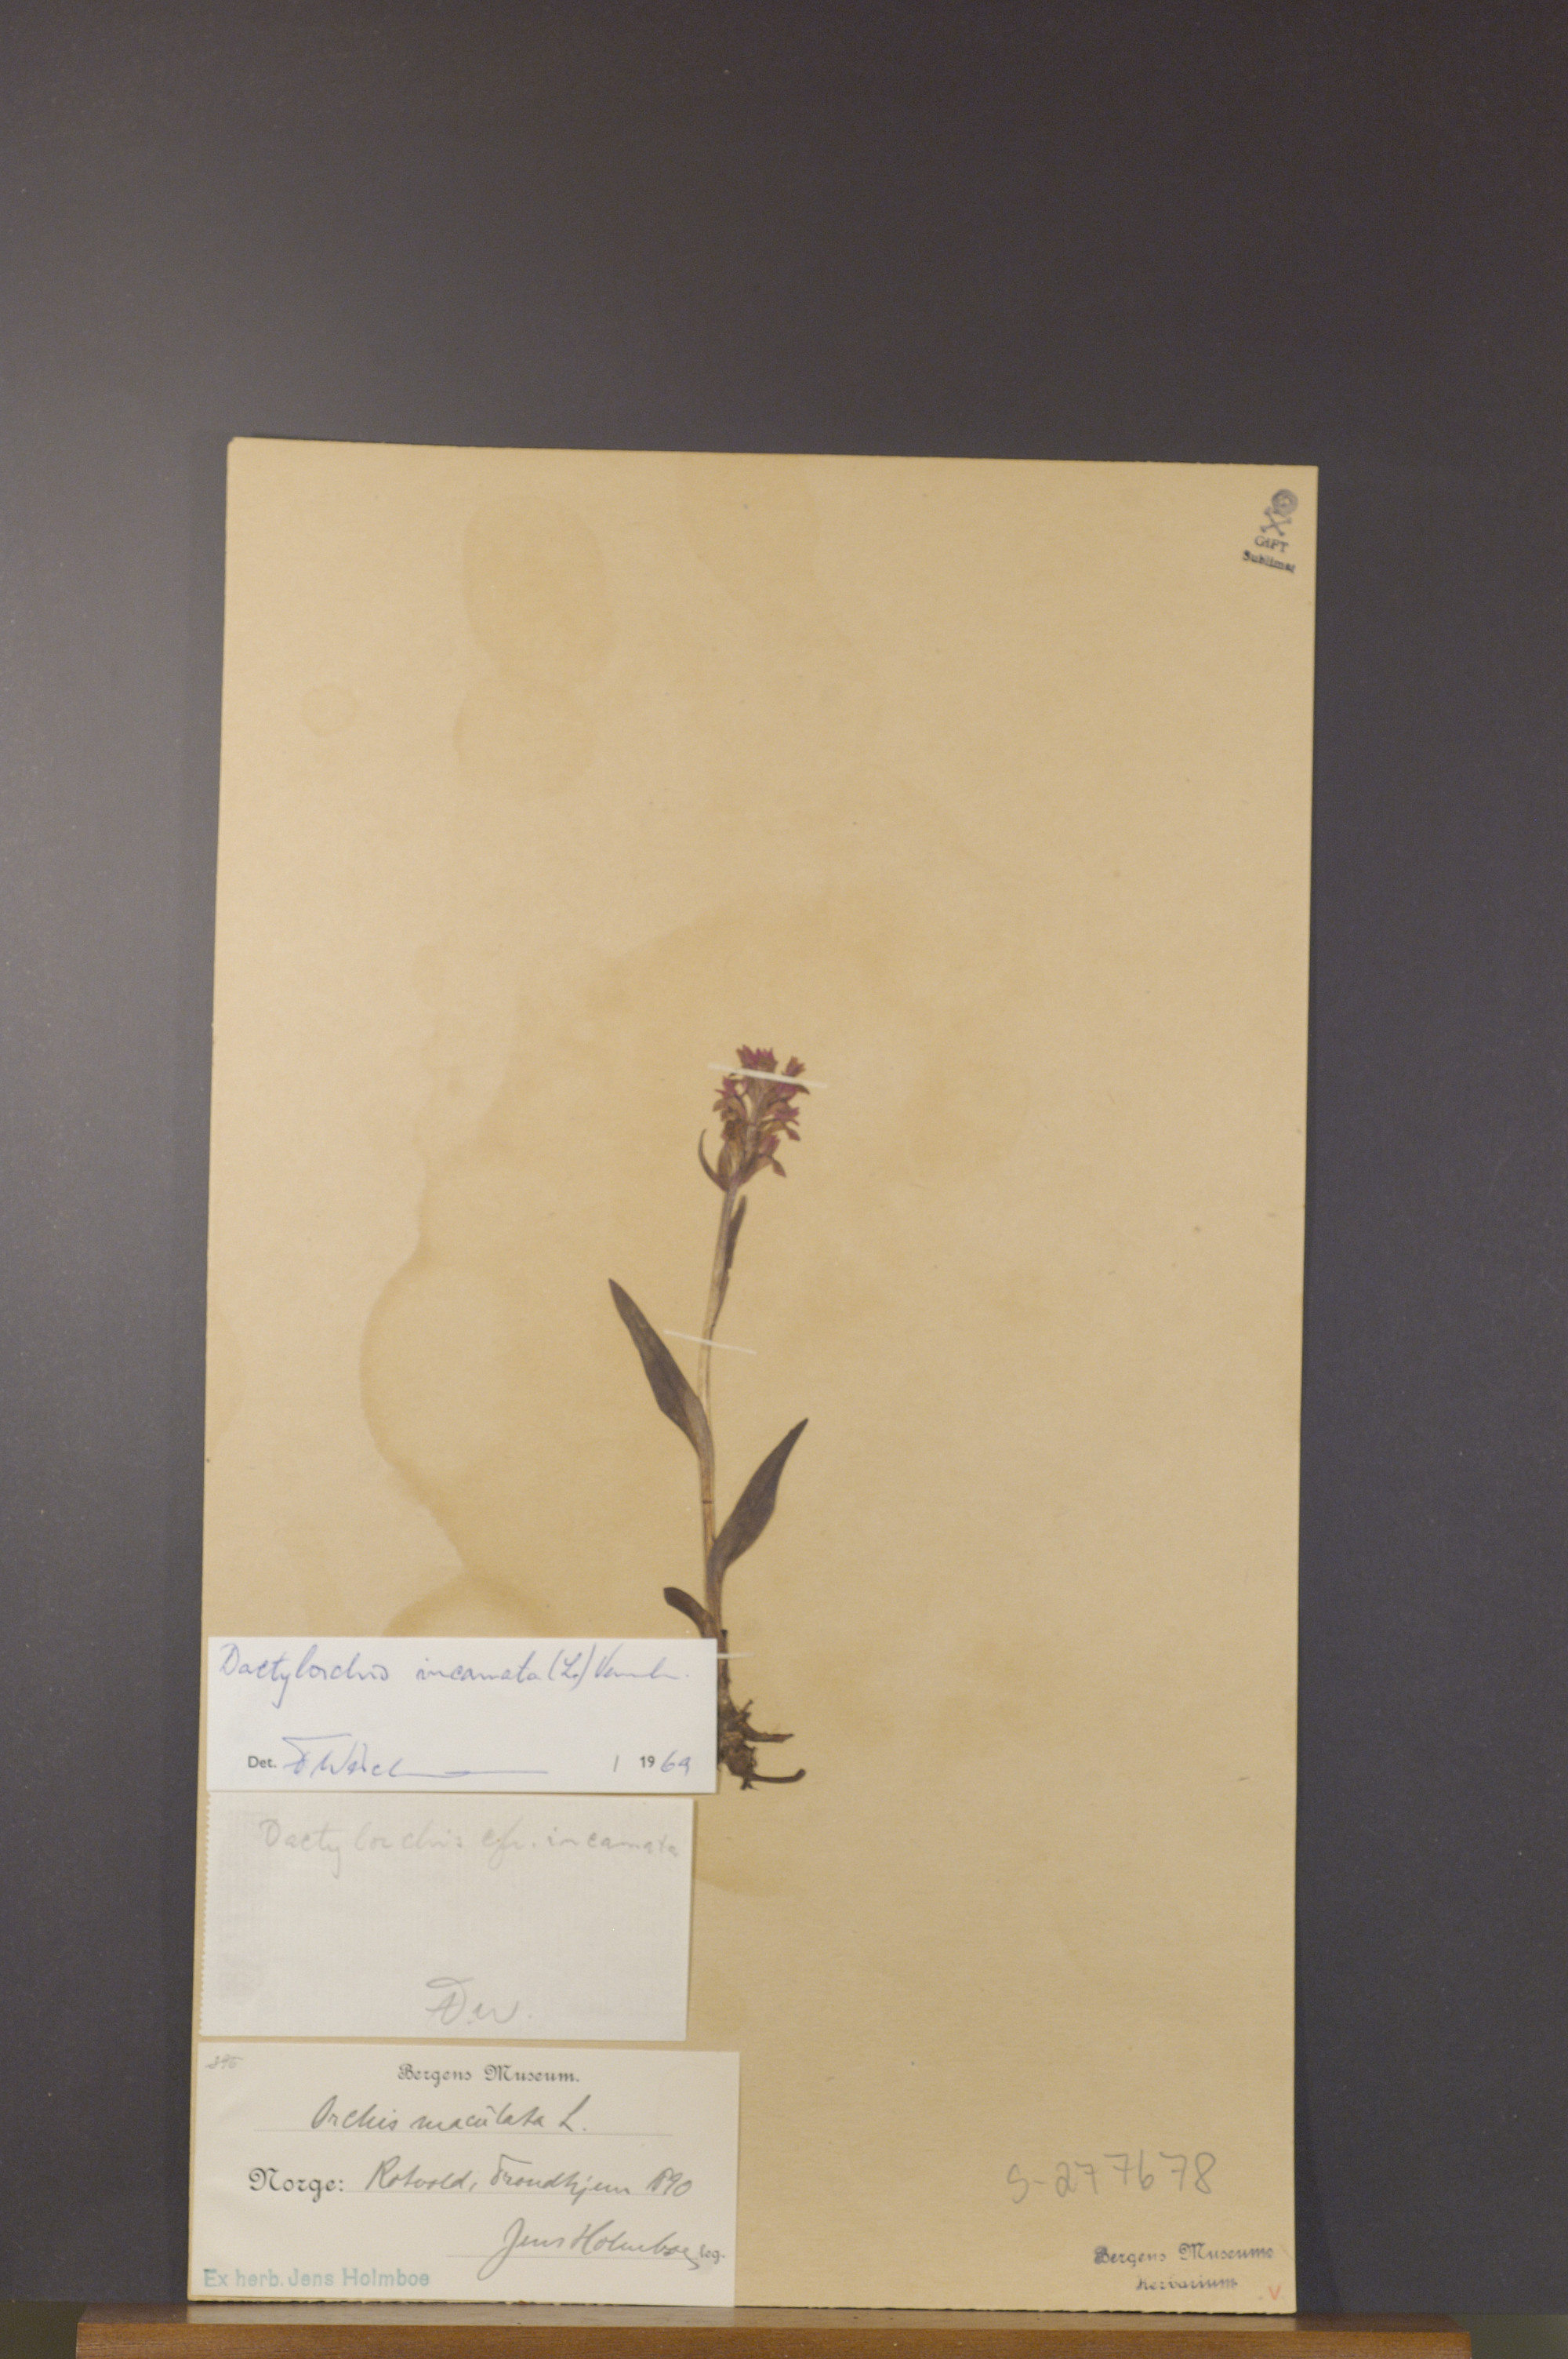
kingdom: Plantae
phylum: Tracheophyta
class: Liliopsida
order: Asparagales
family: Orchidaceae
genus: Dactylorhiza
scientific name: Dactylorhiza incarnata
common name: Early marsh-orchid
